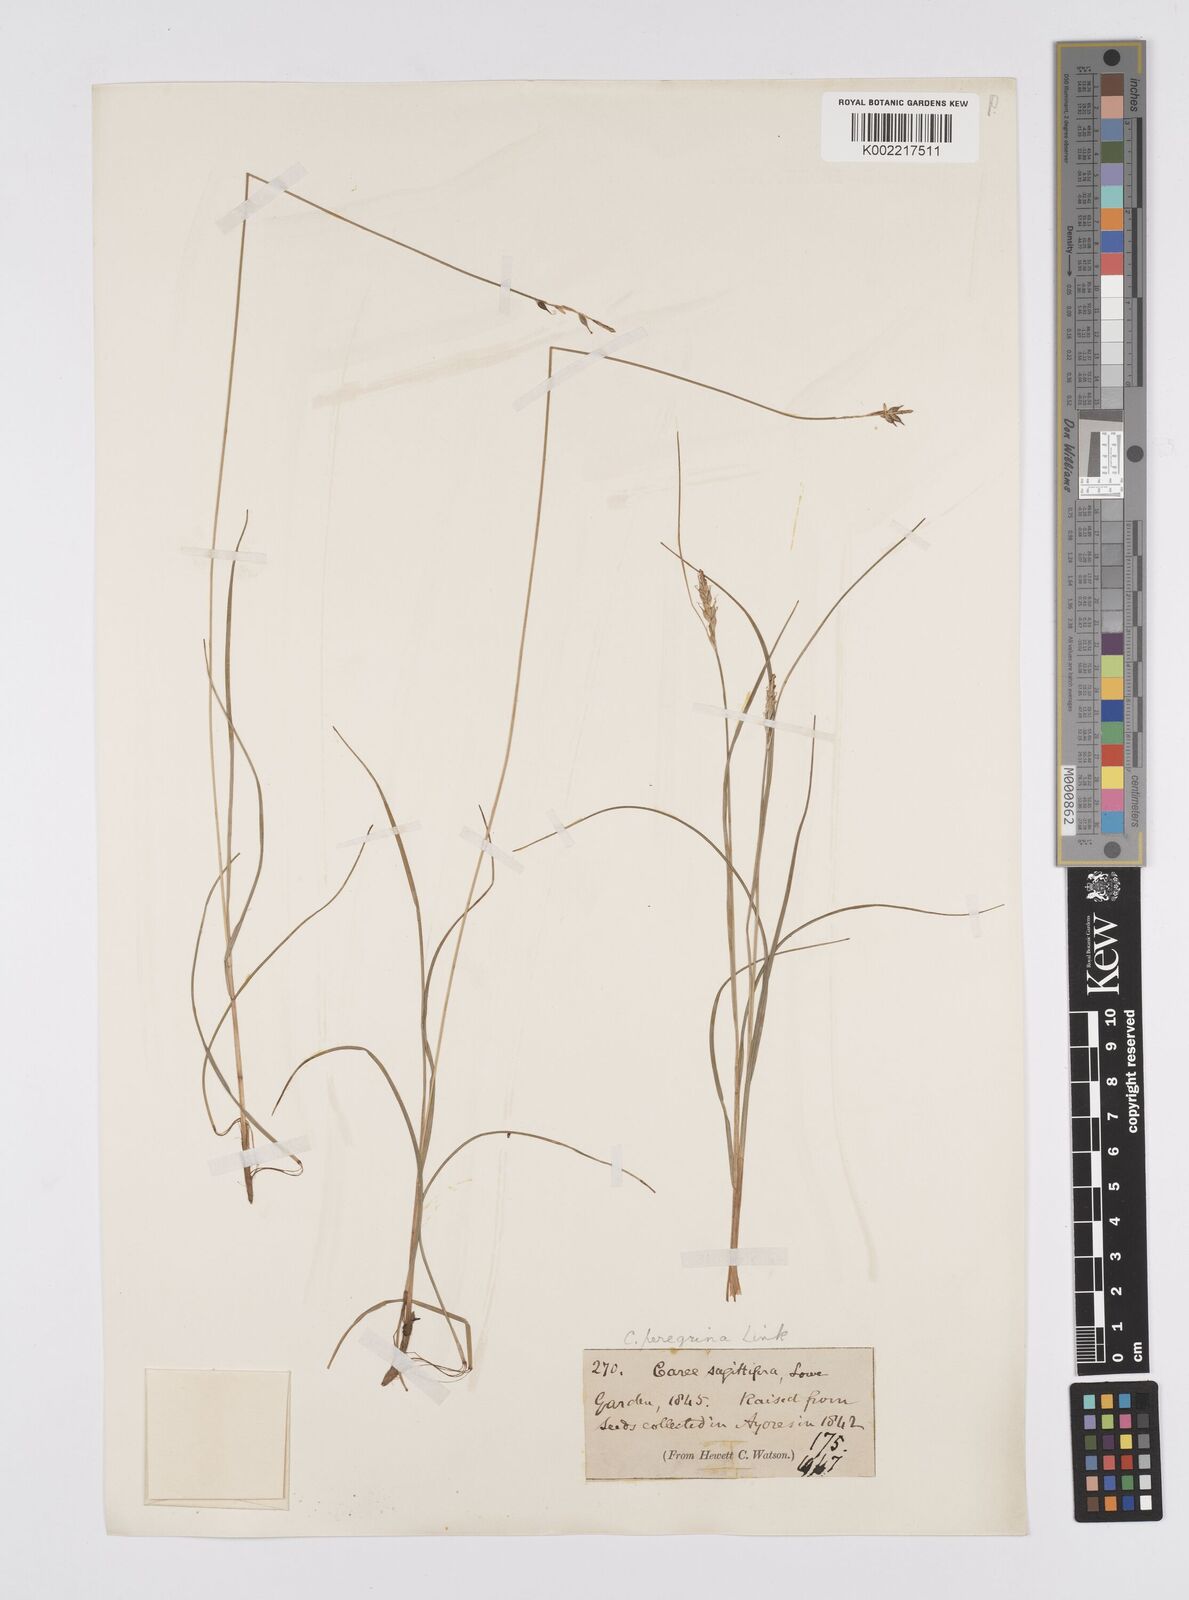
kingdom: Plantae
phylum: Tracheophyta
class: Liliopsida
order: Poales
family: Cyperaceae
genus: Carex
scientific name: Carex peregrina
